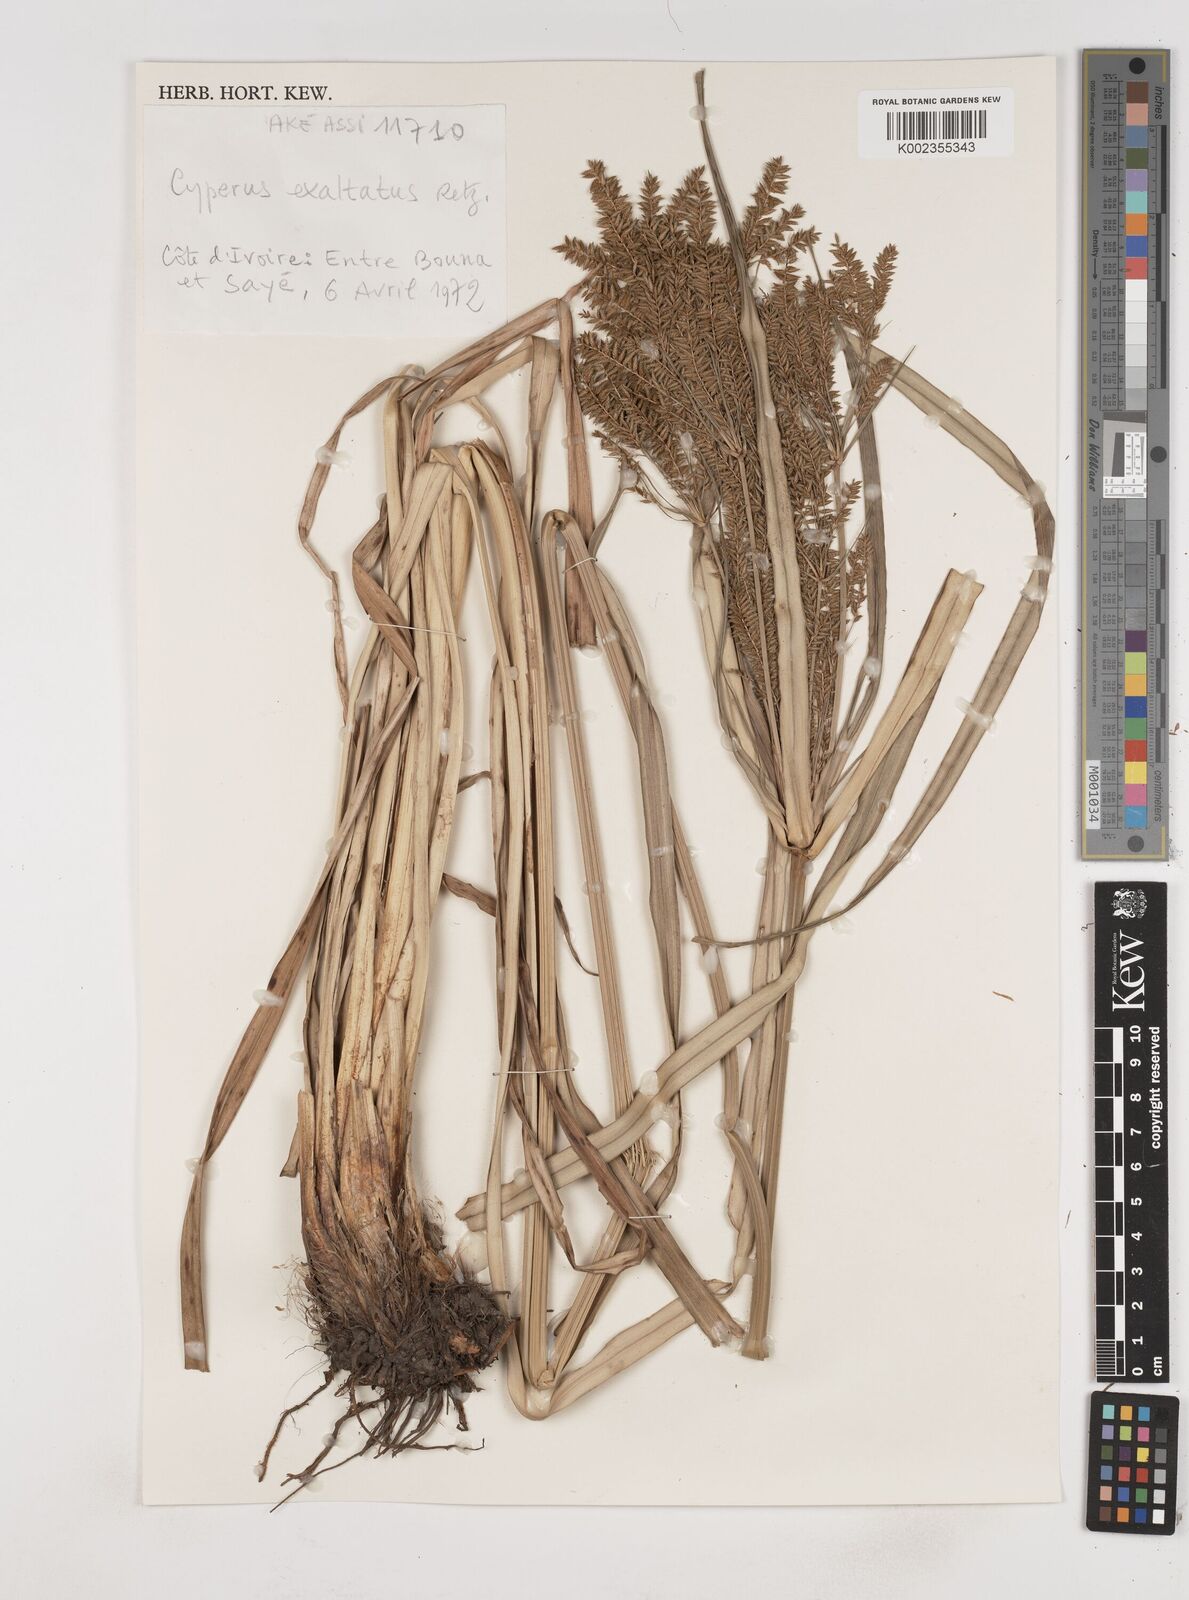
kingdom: Plantae
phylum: Tracheophyta
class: Liliopsida
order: Poales
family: Cyperaceae
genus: Cyperus
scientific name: Cyperus exaltatus
